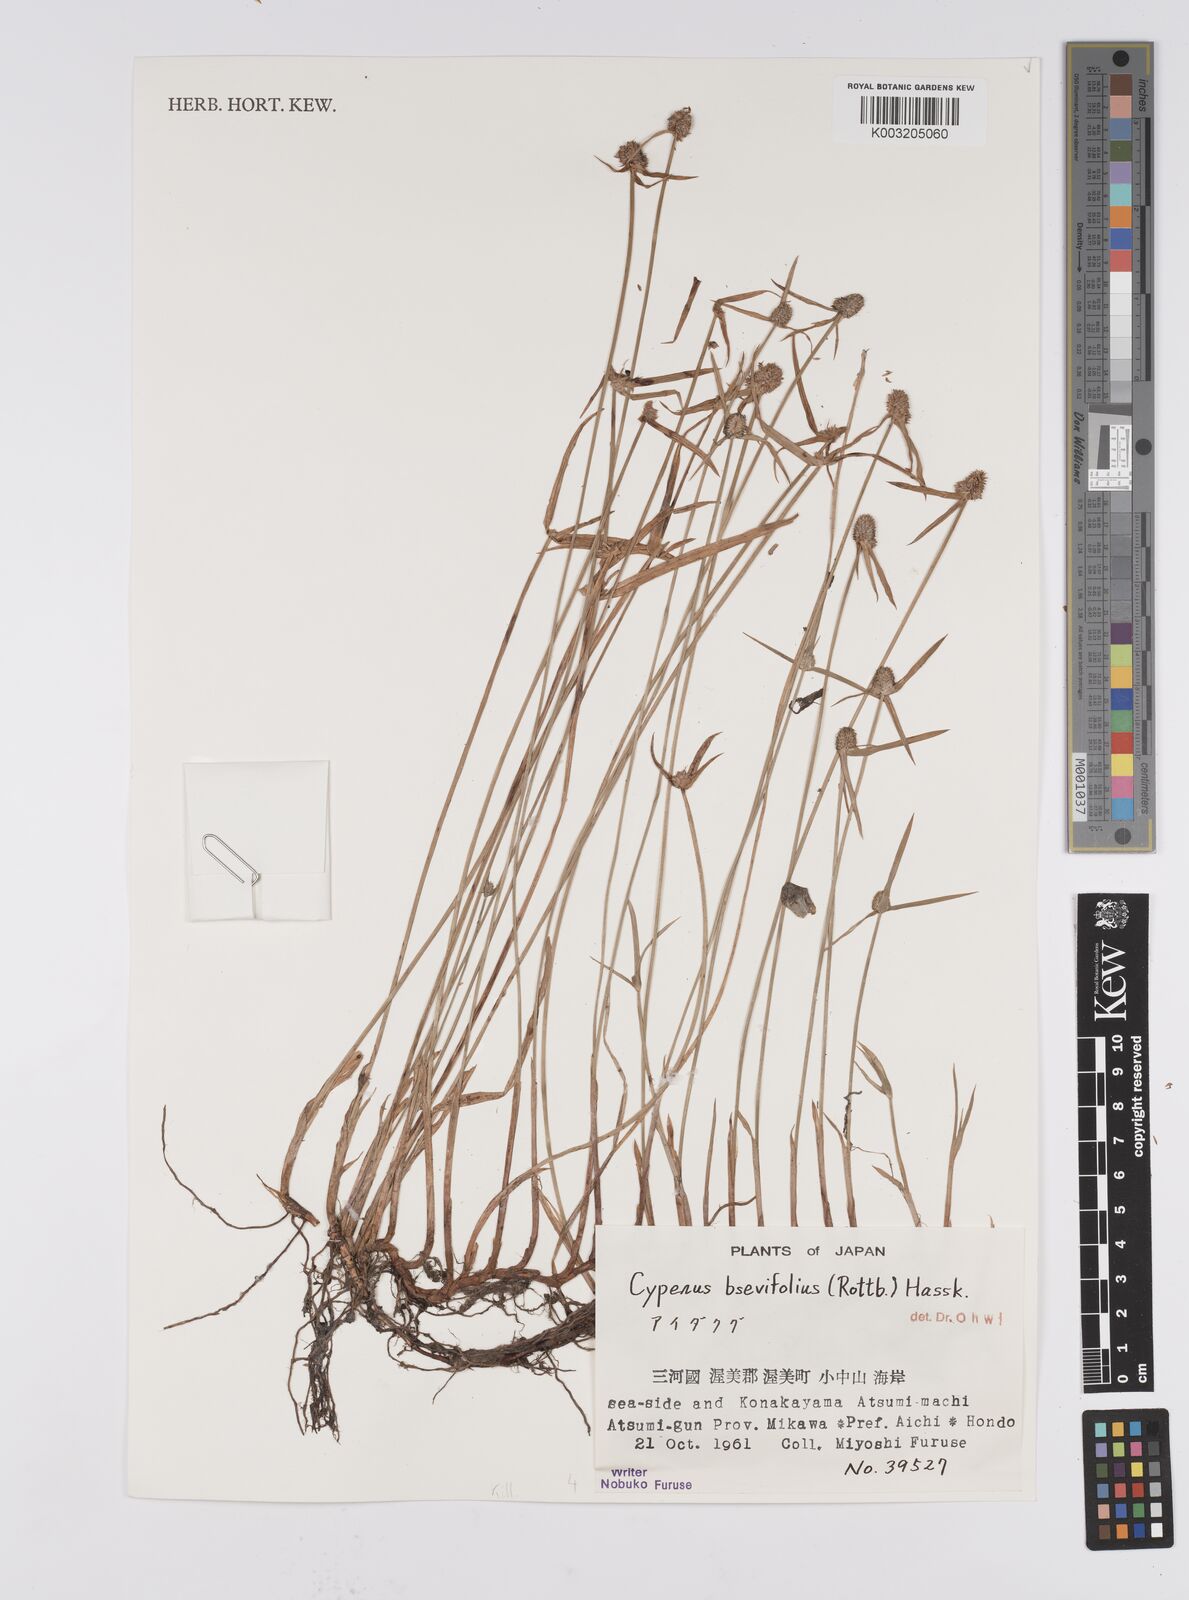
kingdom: Plantae
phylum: Tracheophyta
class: Liliopsida
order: Poales
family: Cyperaceae
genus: Cyperus
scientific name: Cyperus brevifolius
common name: Globe kyllinga
